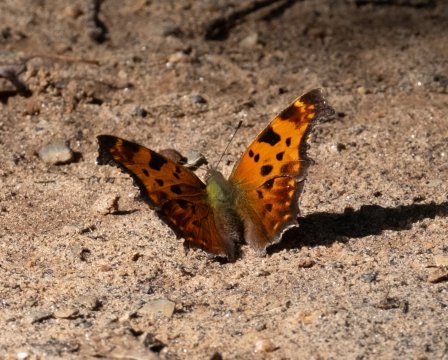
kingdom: Animalia
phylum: Arthropoda
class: Insecta
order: Lepidoptera
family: Nymphalidae
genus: Polygonia
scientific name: Polygonia comma
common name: Eastern Comma
